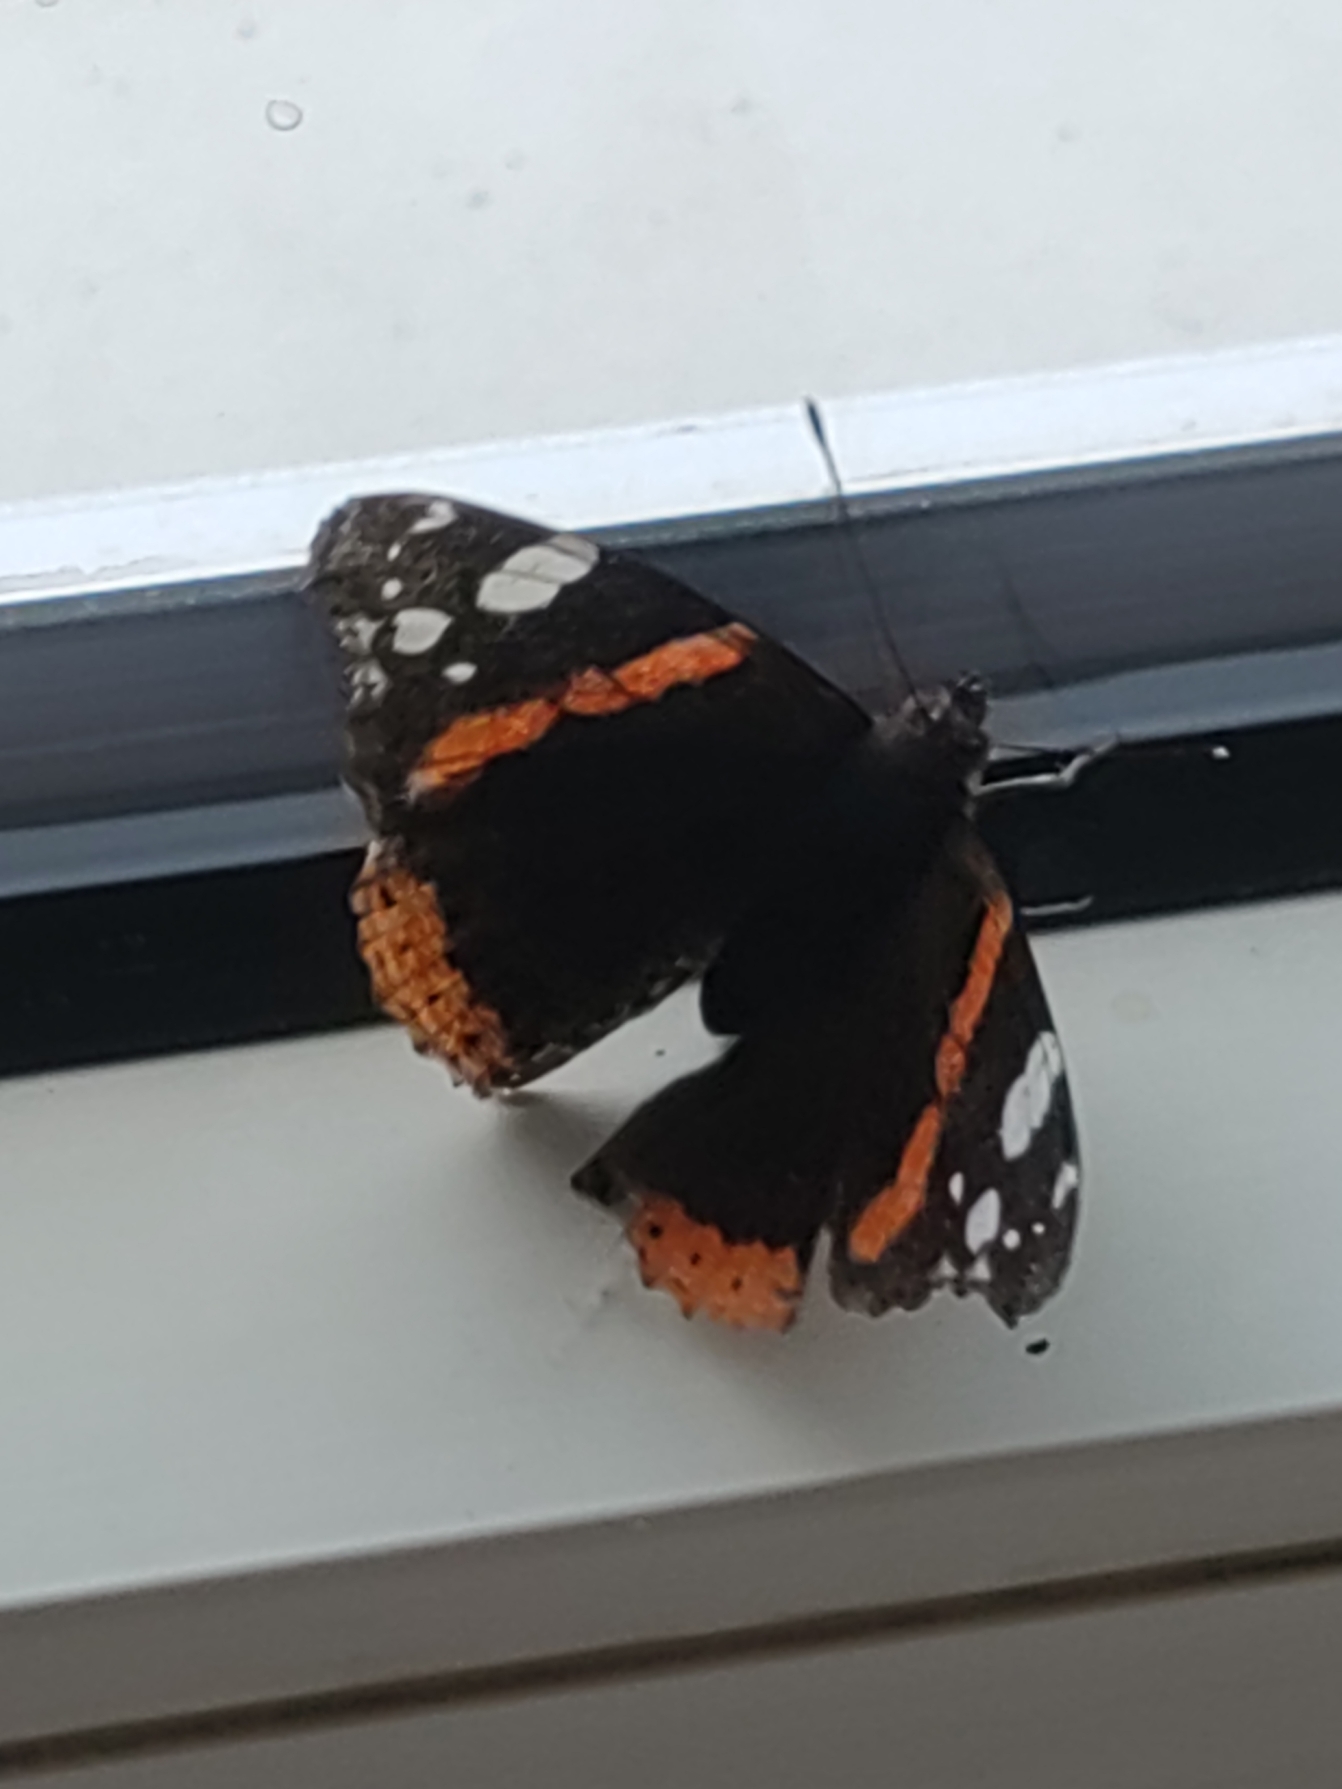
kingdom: Animalia
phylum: Arthropoda
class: Insecta
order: Lepidoptera
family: Nymphalidae
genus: Vanessa
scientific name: Vanessa atalanta
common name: Admiral
